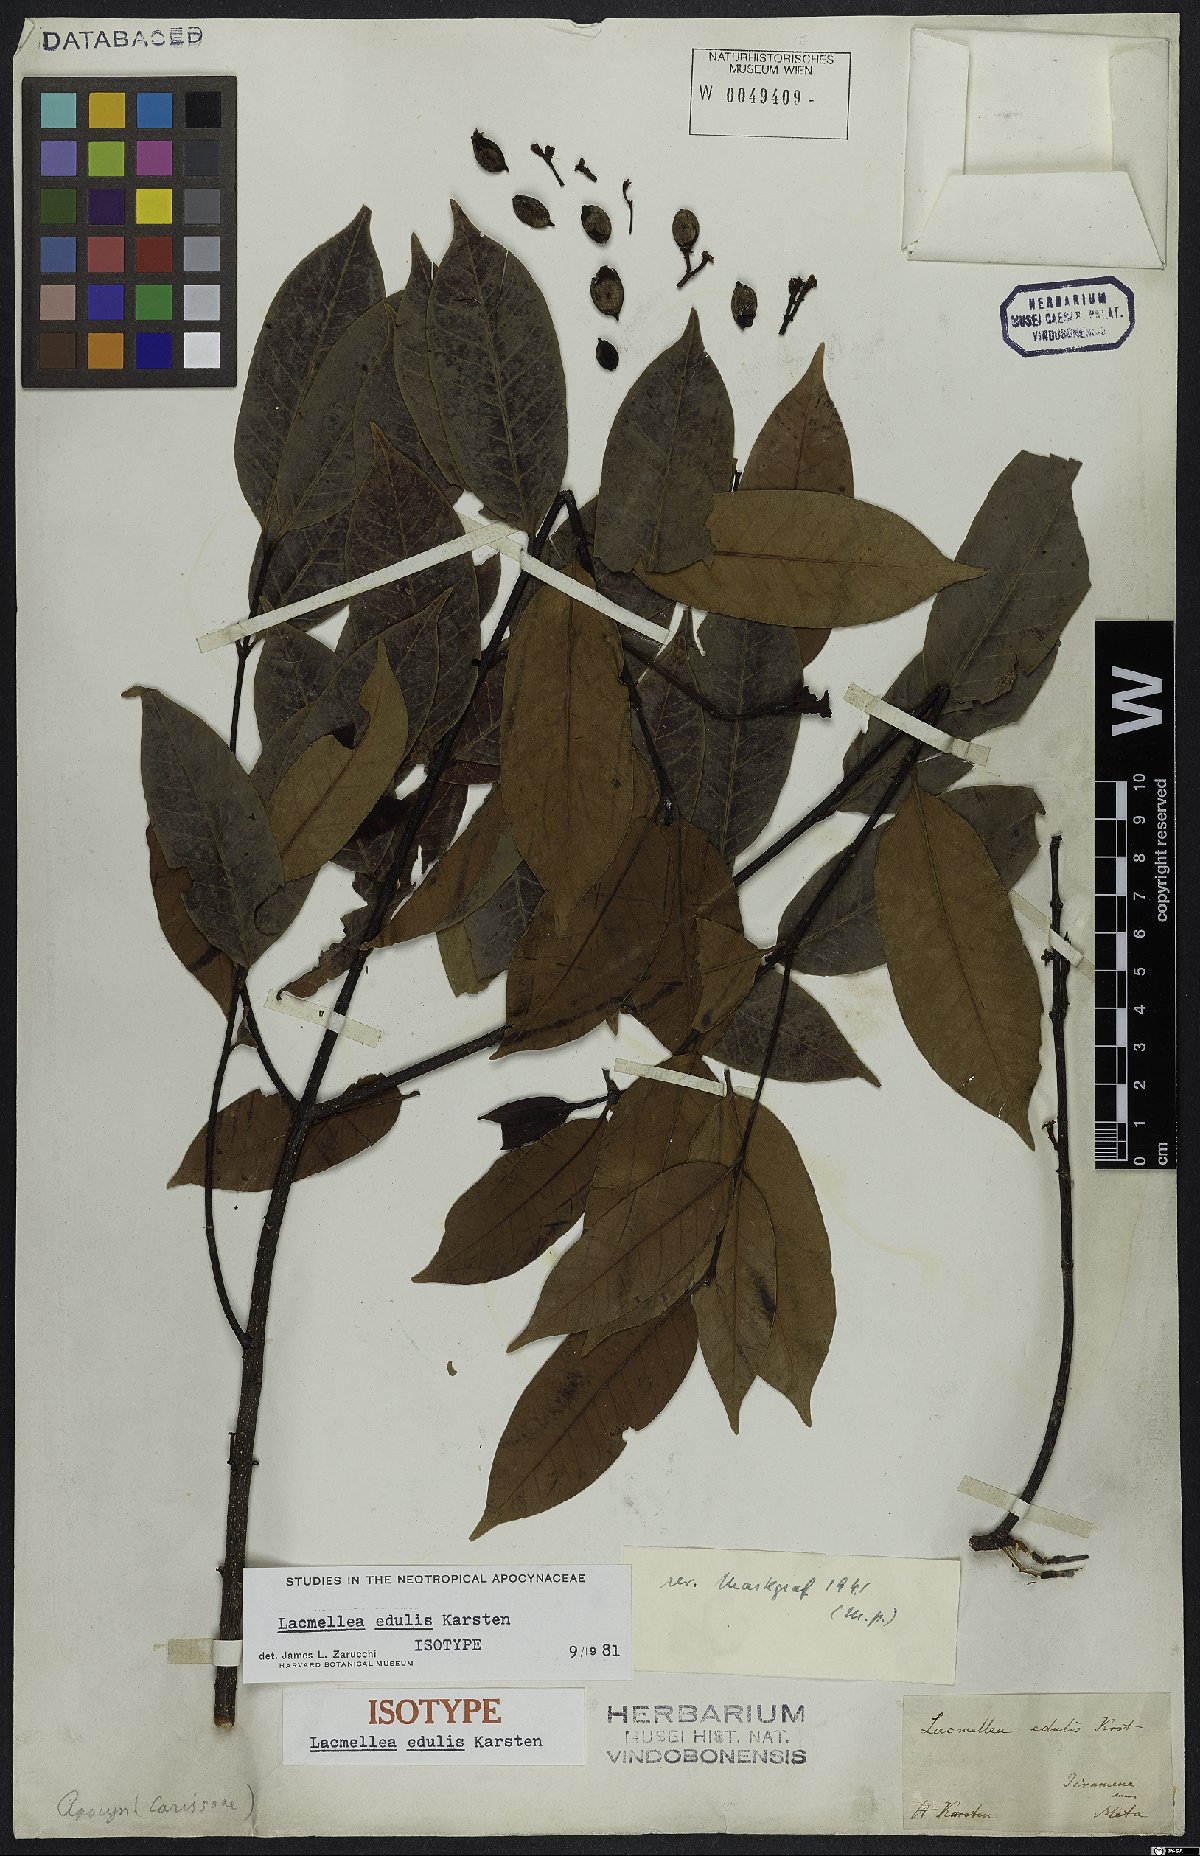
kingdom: Plantae
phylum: Tracheophyta
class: Magnoliopsida
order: Gentianales
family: Apocynaceae
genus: Lacmellea
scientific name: Lacmellea edulis
